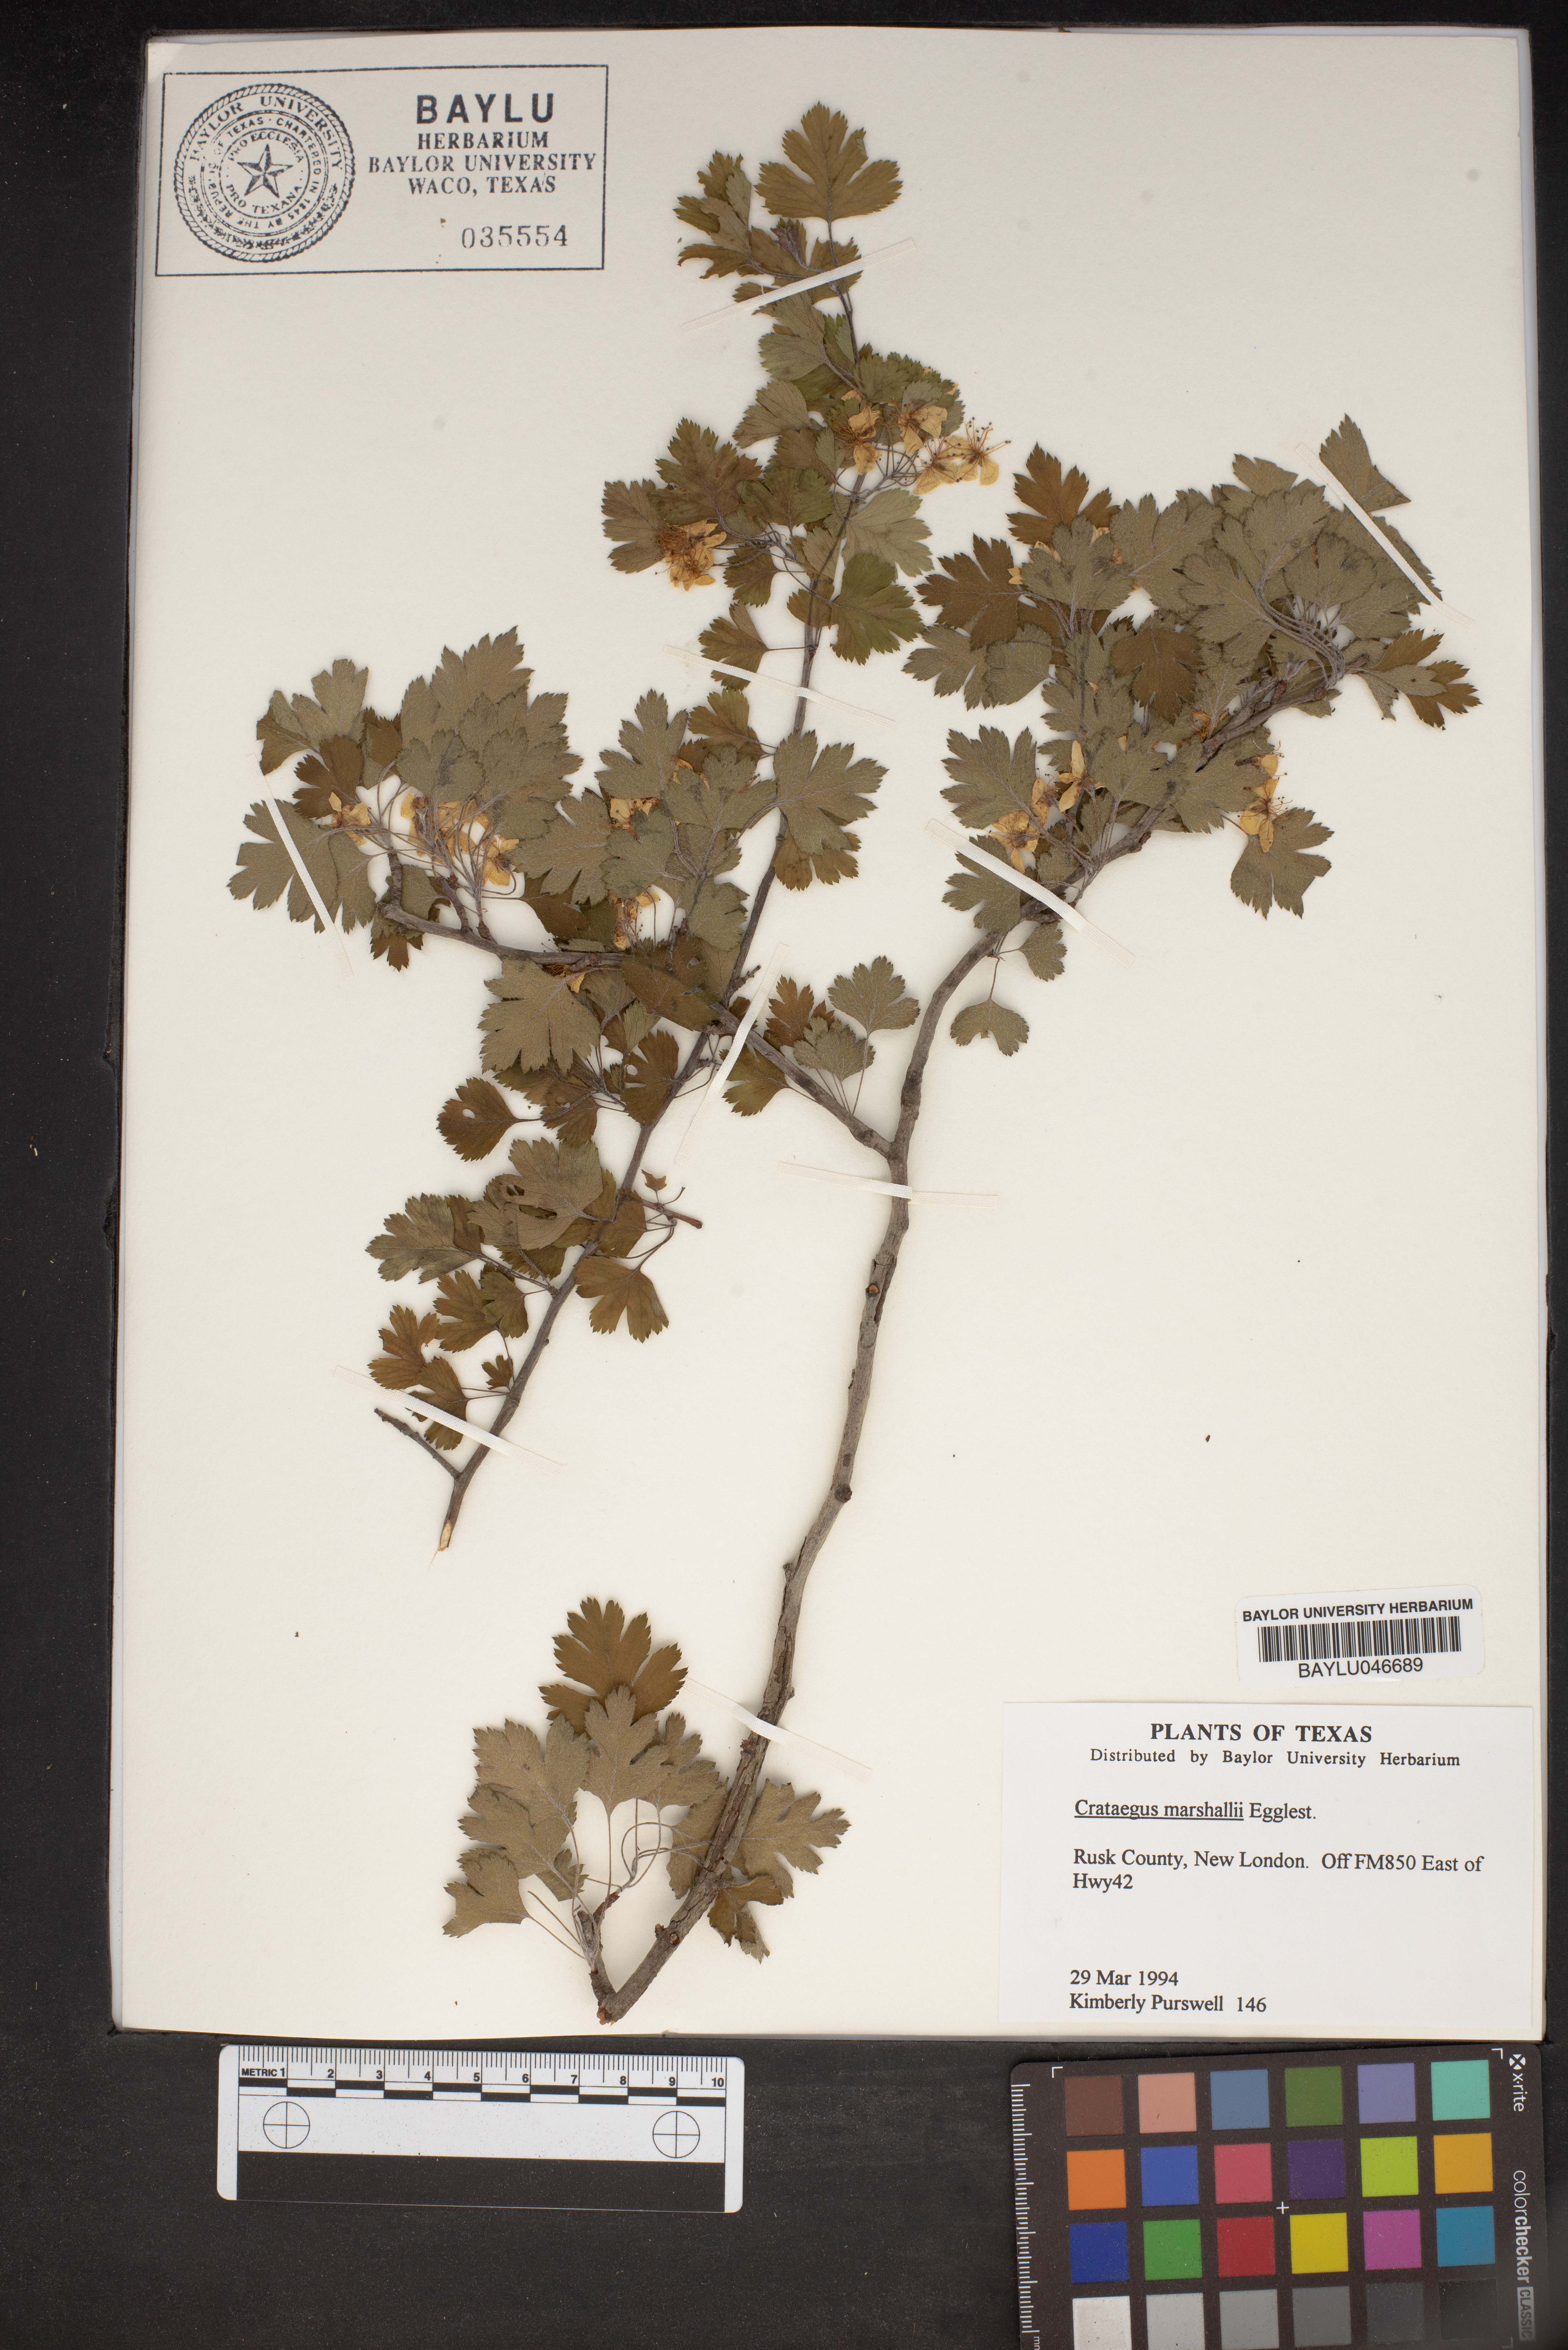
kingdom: Plantae
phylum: Tracheophyta
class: Magnoliopsida
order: Rosales
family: Rosaceae
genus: Crataegus
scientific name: Crataegus marshallii
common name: Parsley-hawthorn
